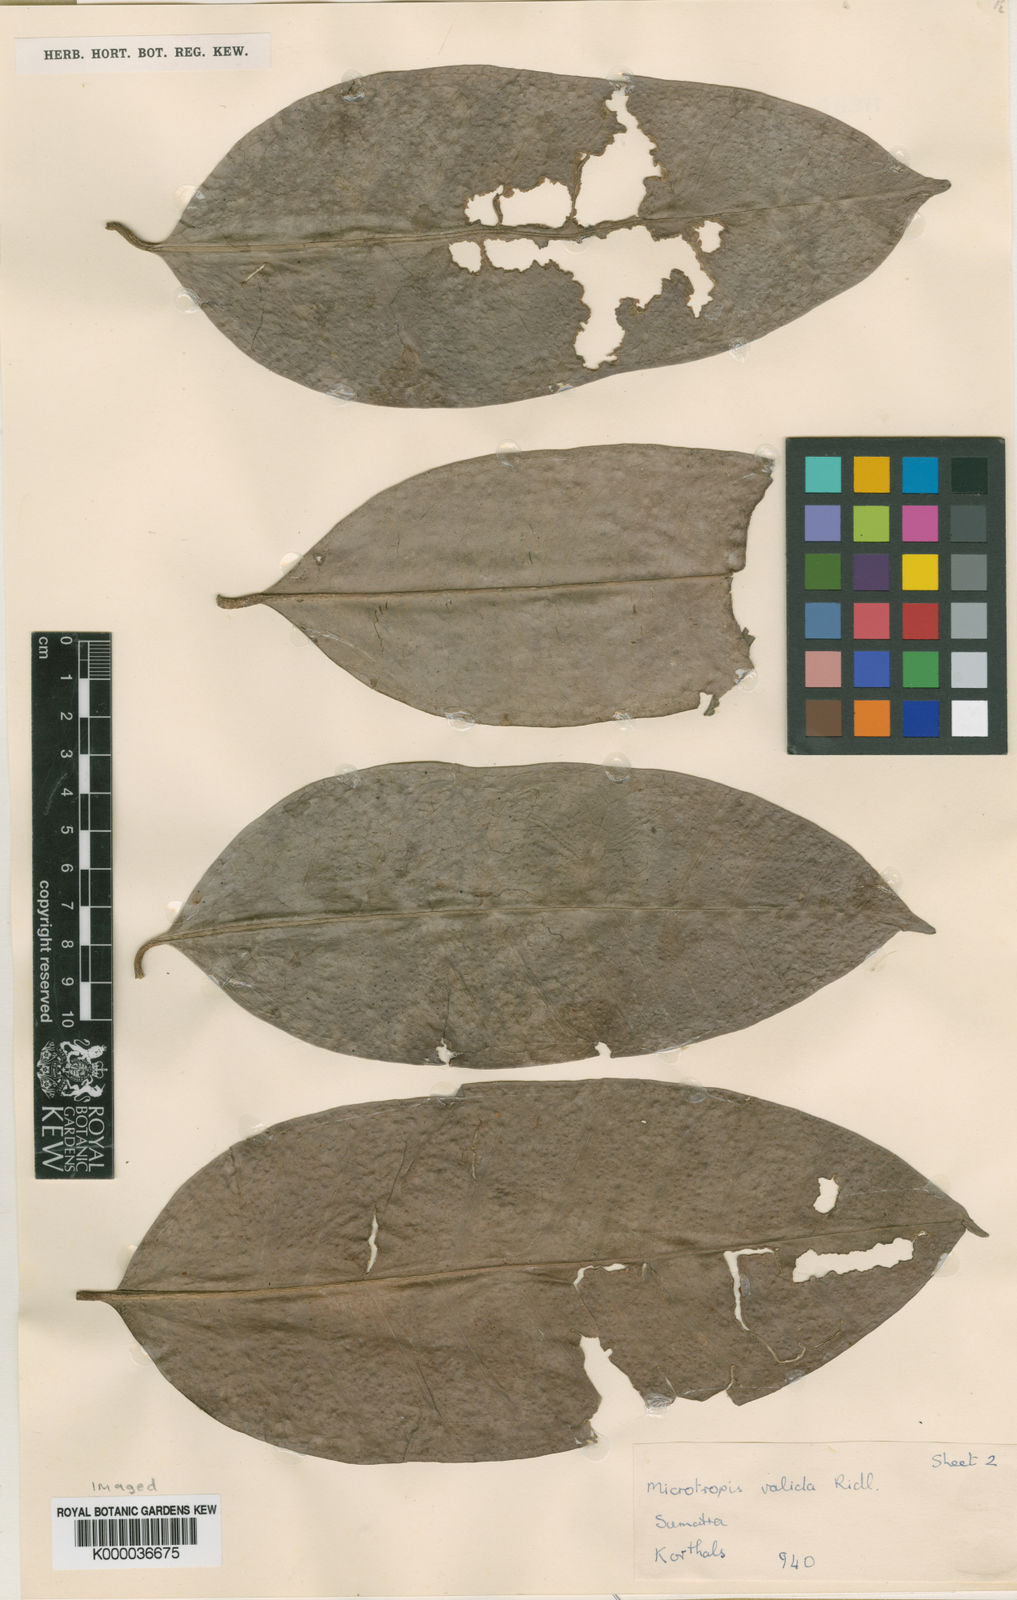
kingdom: Plantae
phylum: Tracheophyta
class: Magnoliopsida
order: Celastrales
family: Celastraceae
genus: Microtropis
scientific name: Microtropis valida
